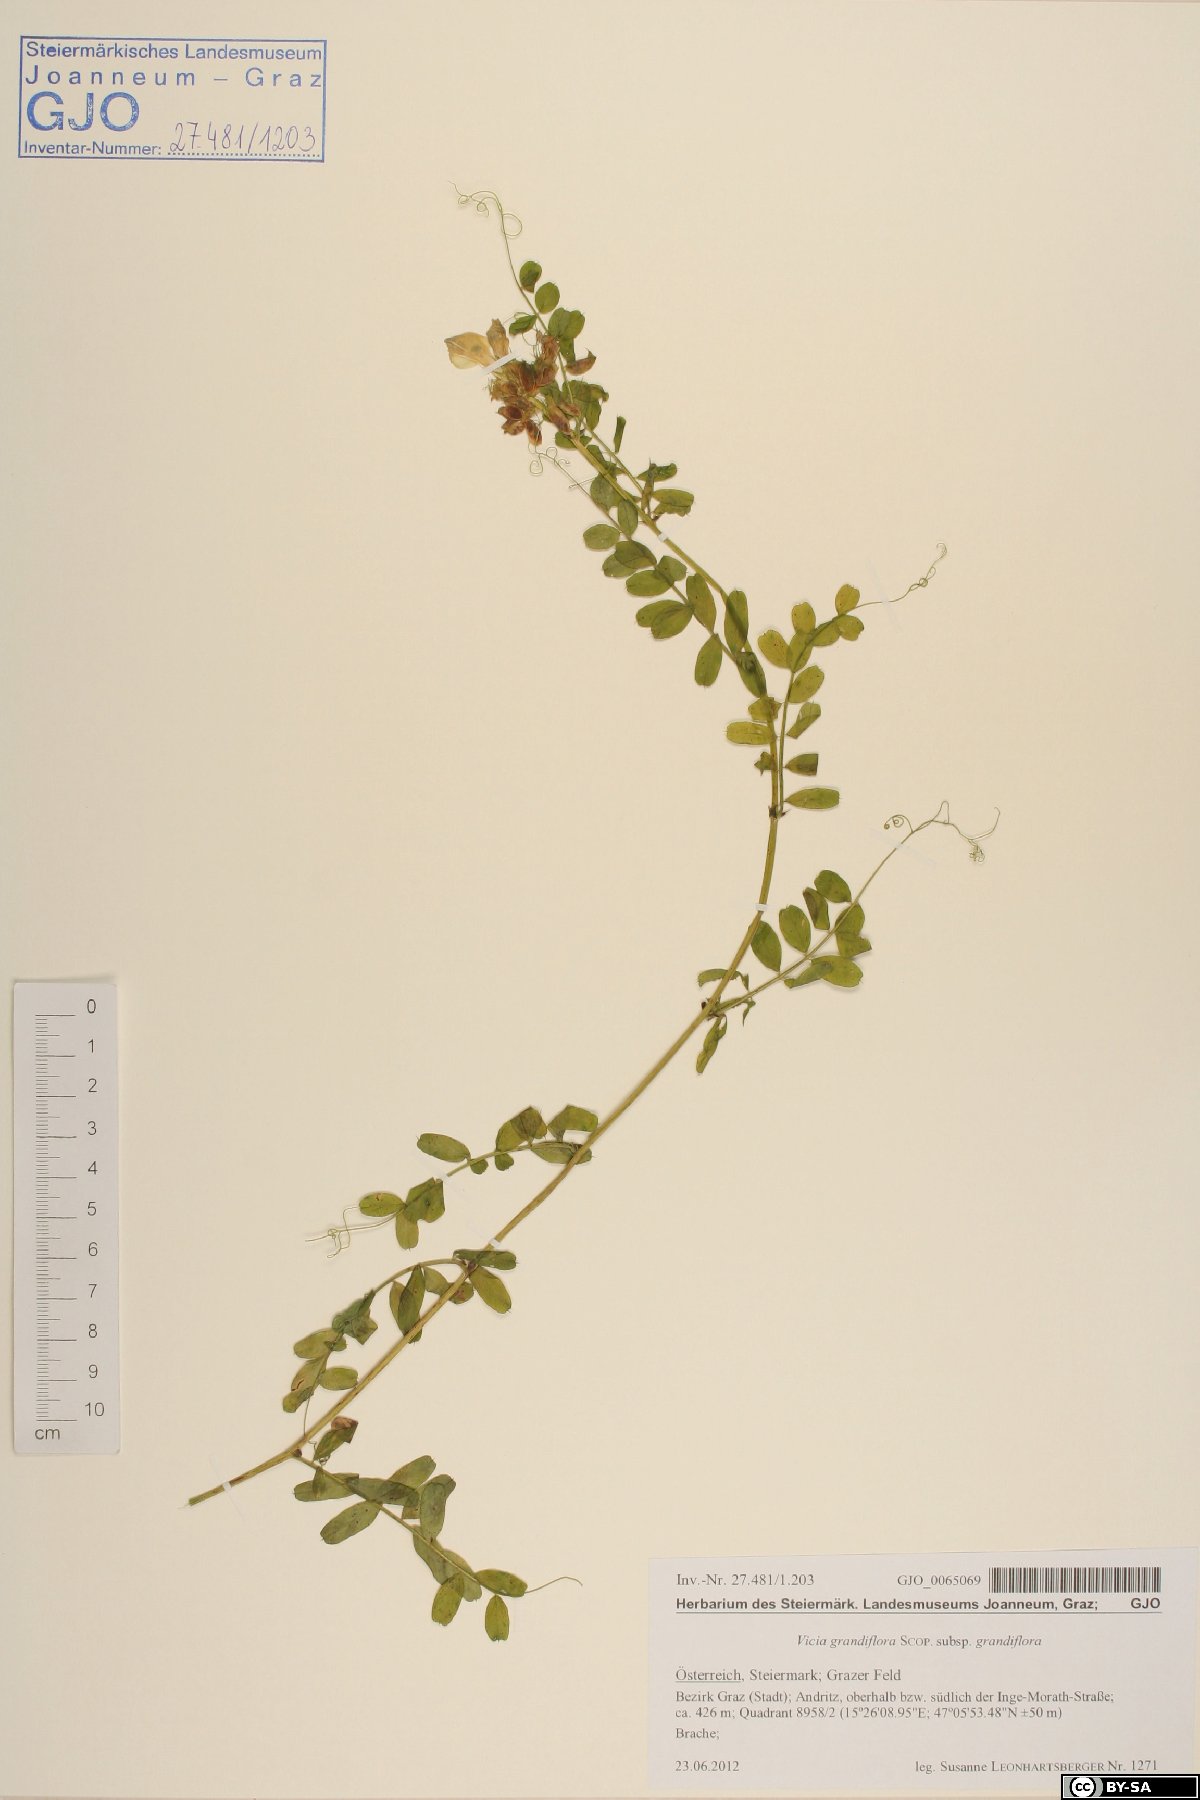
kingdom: Plantae
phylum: Tracheophyta
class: Magnoliopsida
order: Fabales
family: Fabaceae
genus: Vicia
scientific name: Vicia grandiflora
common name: Large yellow vetch
